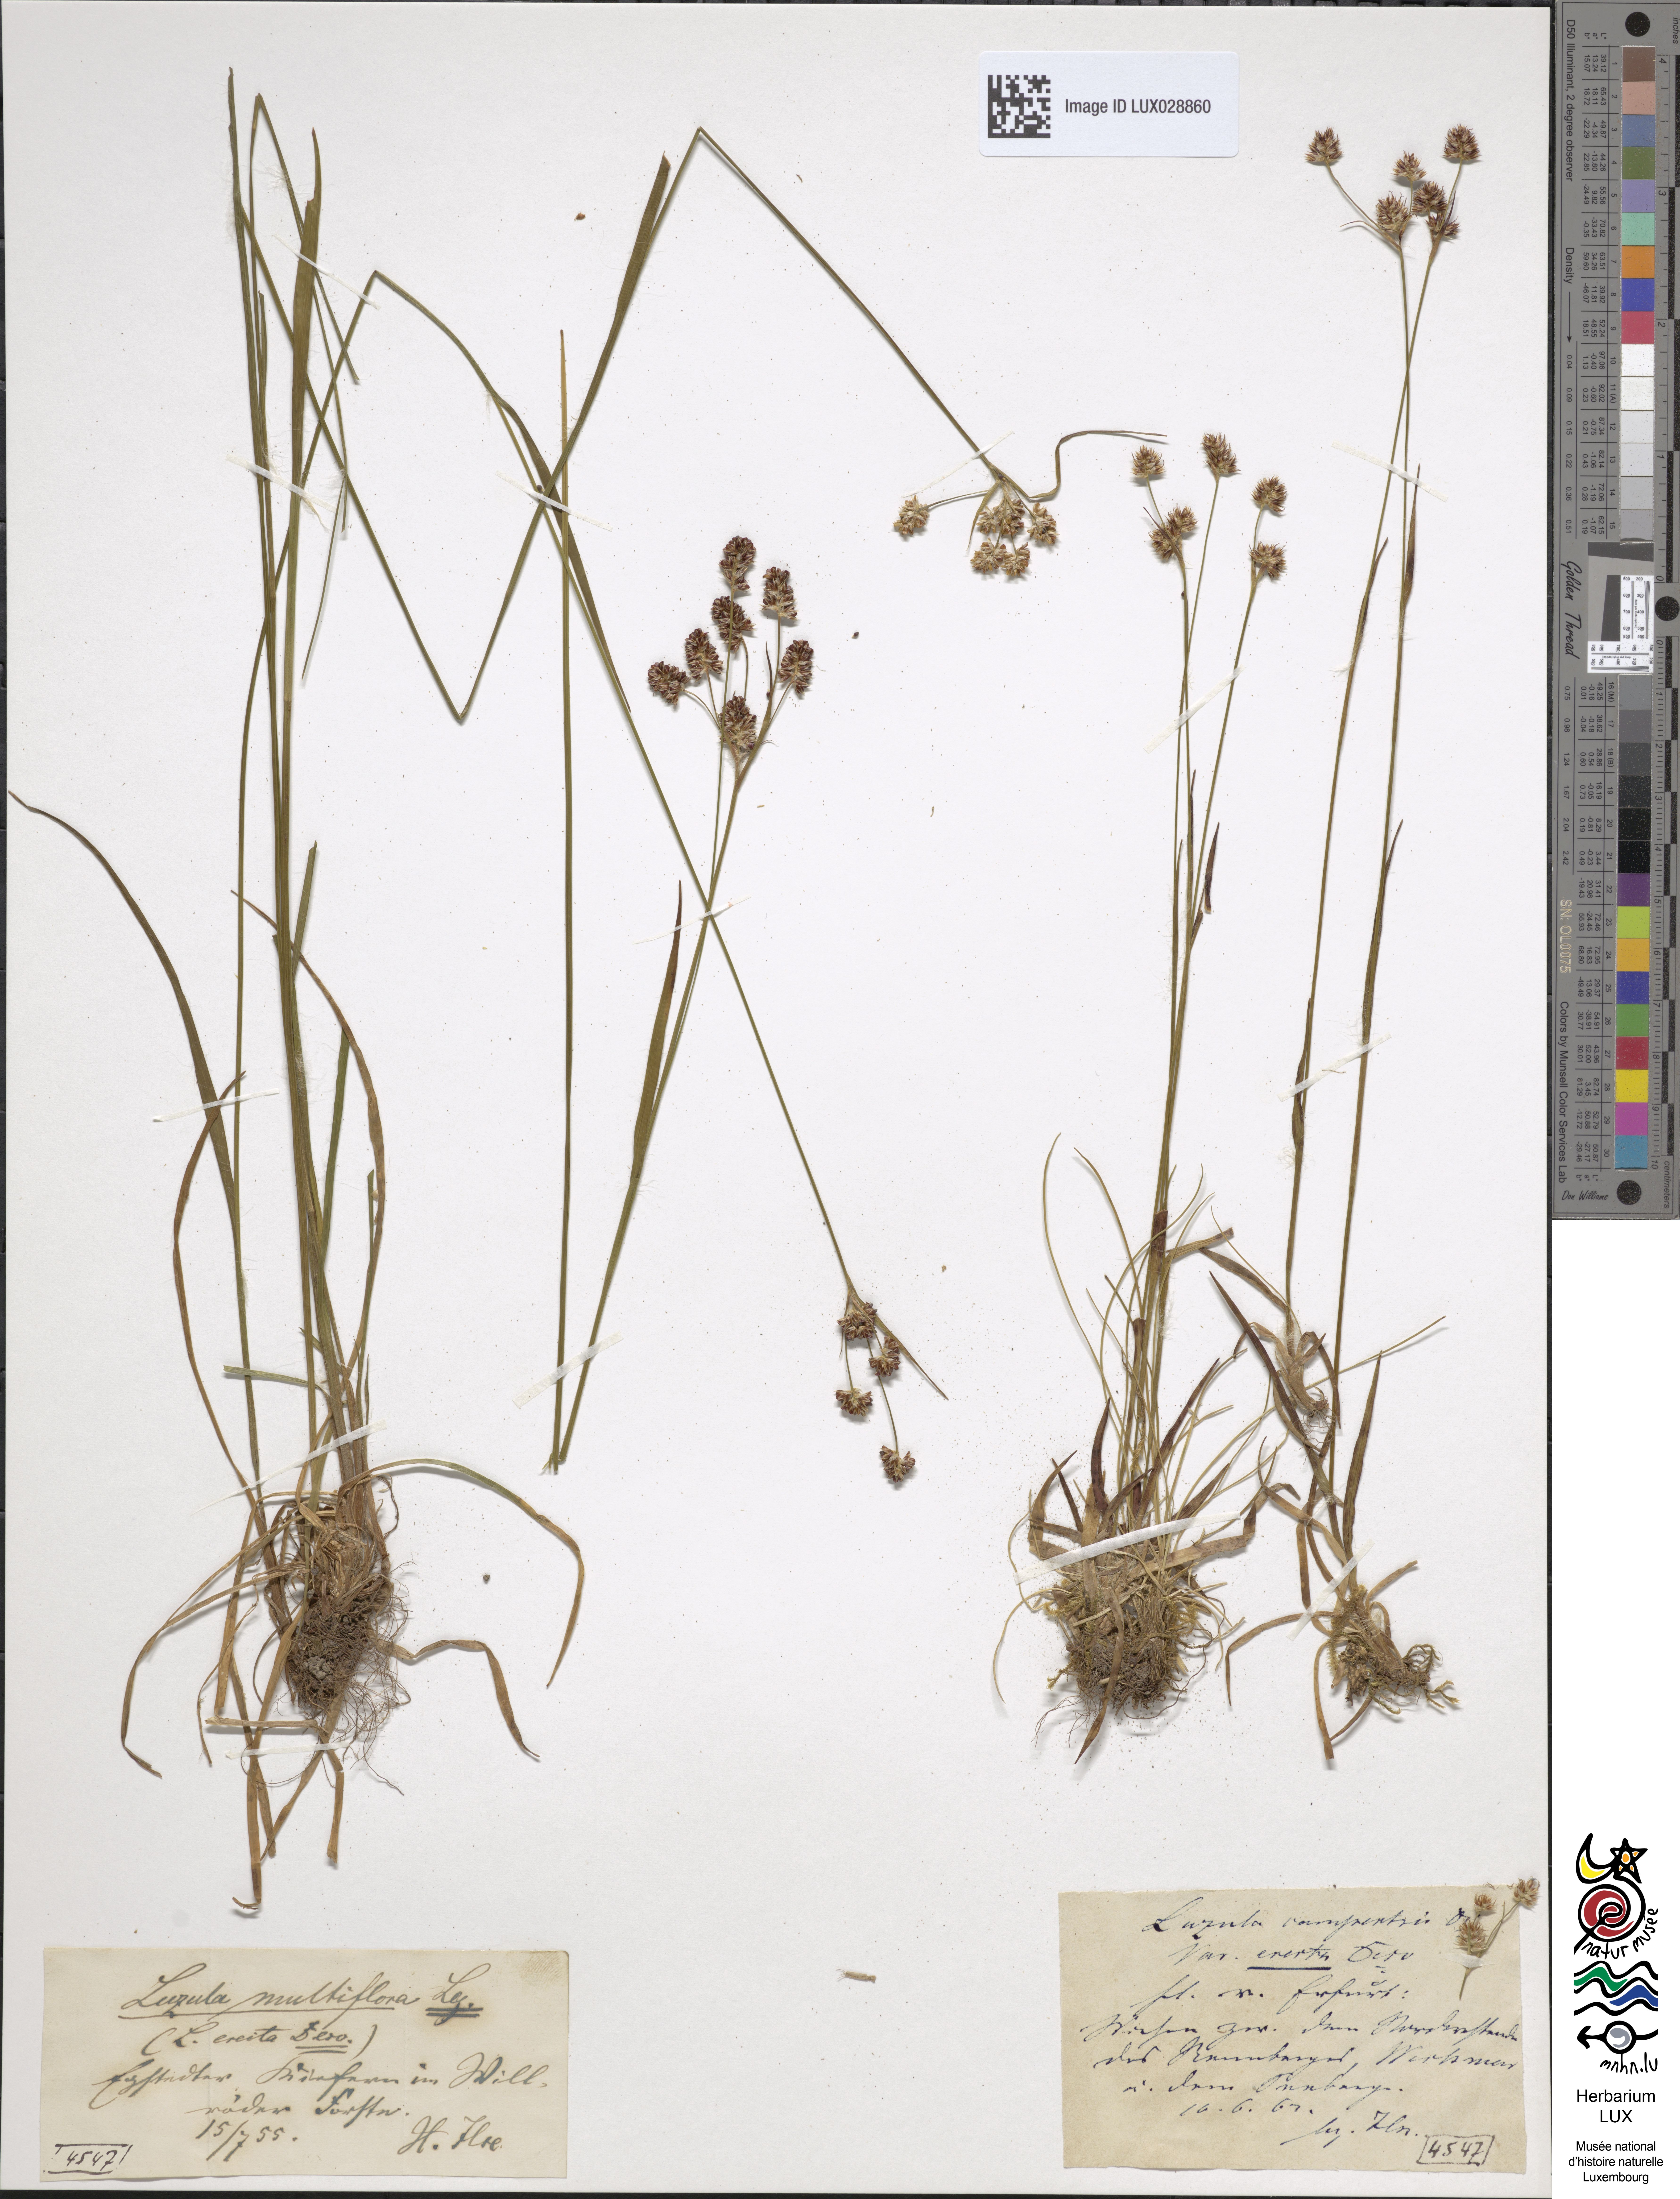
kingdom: Plantae
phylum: Tracheophyta
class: Liliopsida
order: Poales
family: Juncaceae
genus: Luzula
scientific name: Luzula multiflora
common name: Heath wood-rush
